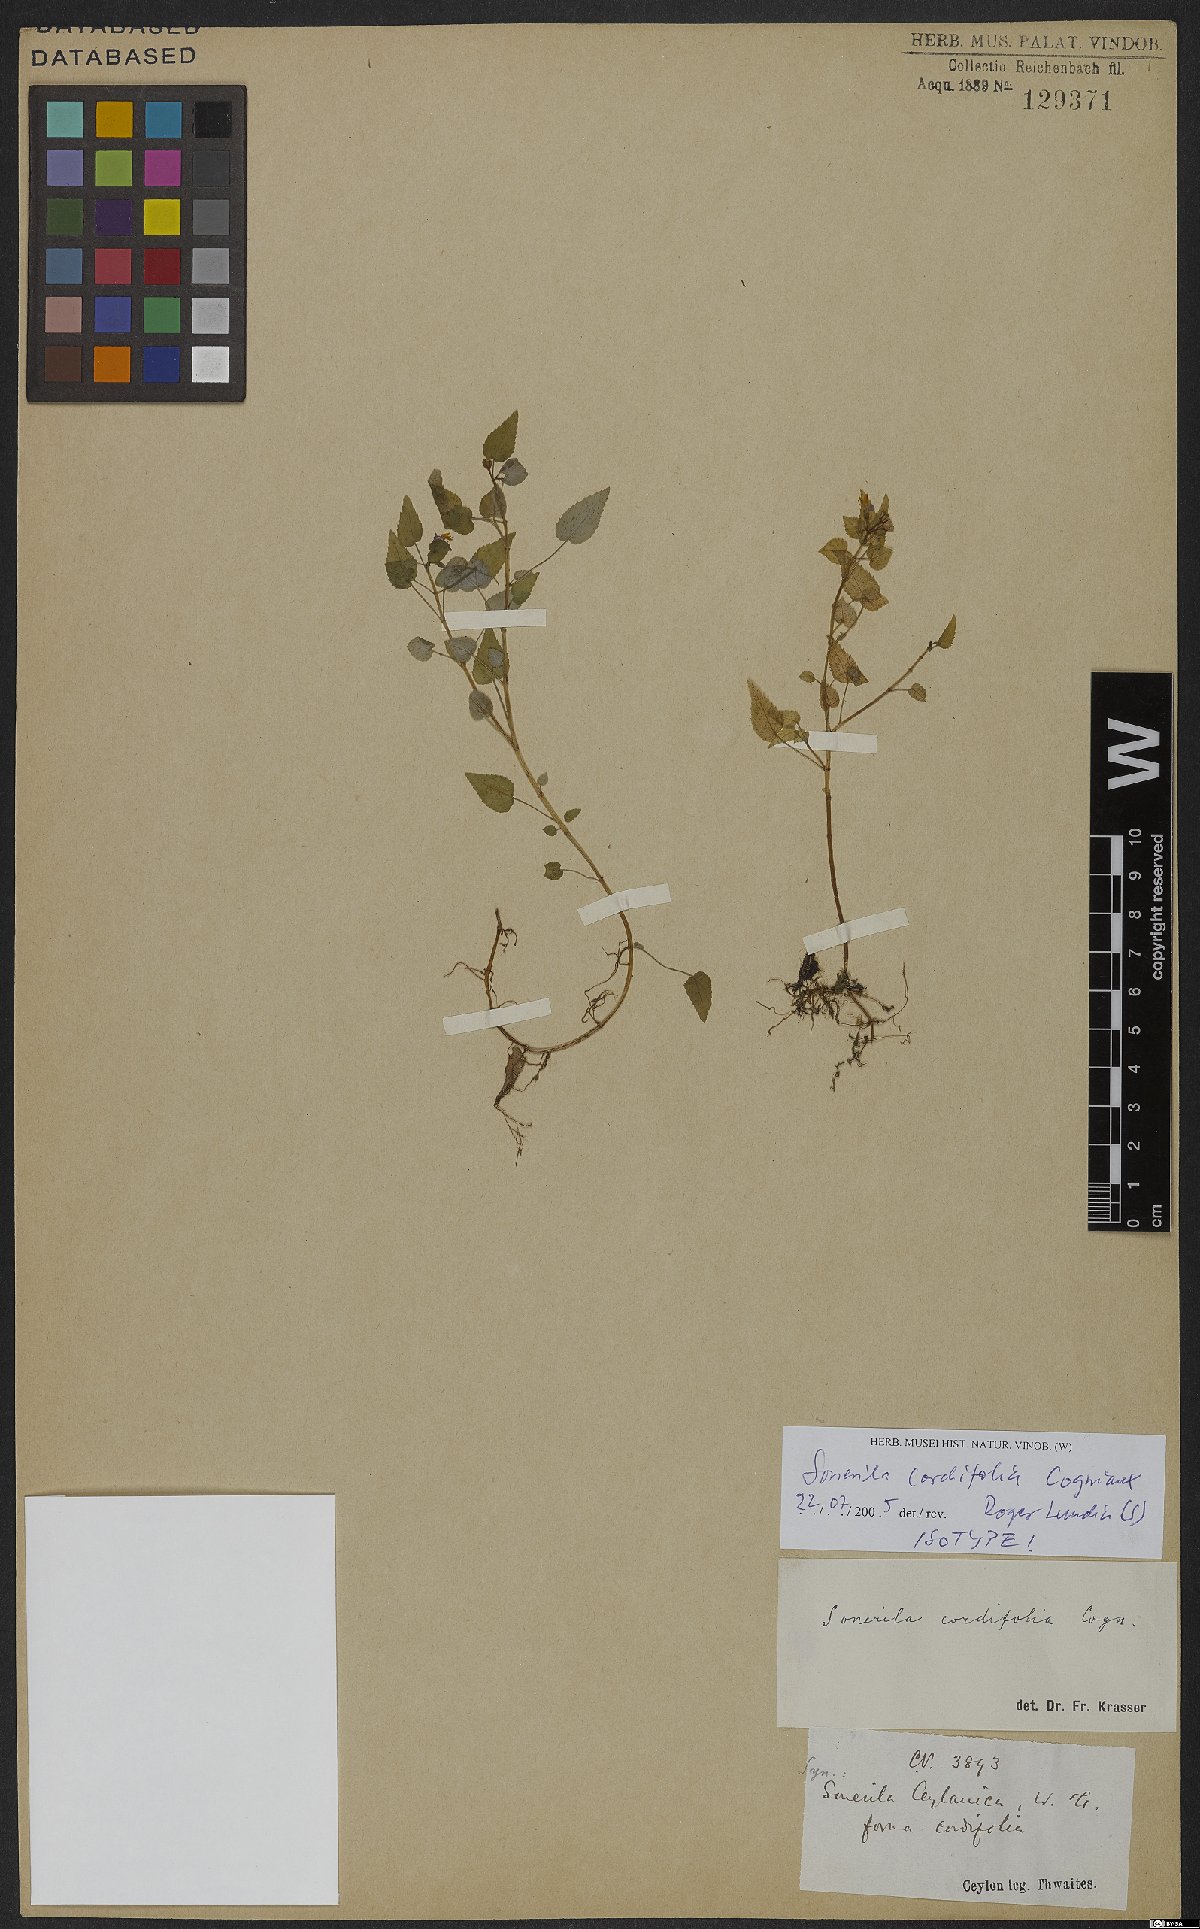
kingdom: Plantae
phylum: Tracheophyta
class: Magnoliopsida
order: Myrtales
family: Melastomataceae
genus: Sonerila
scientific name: Sonerila cordifolia
